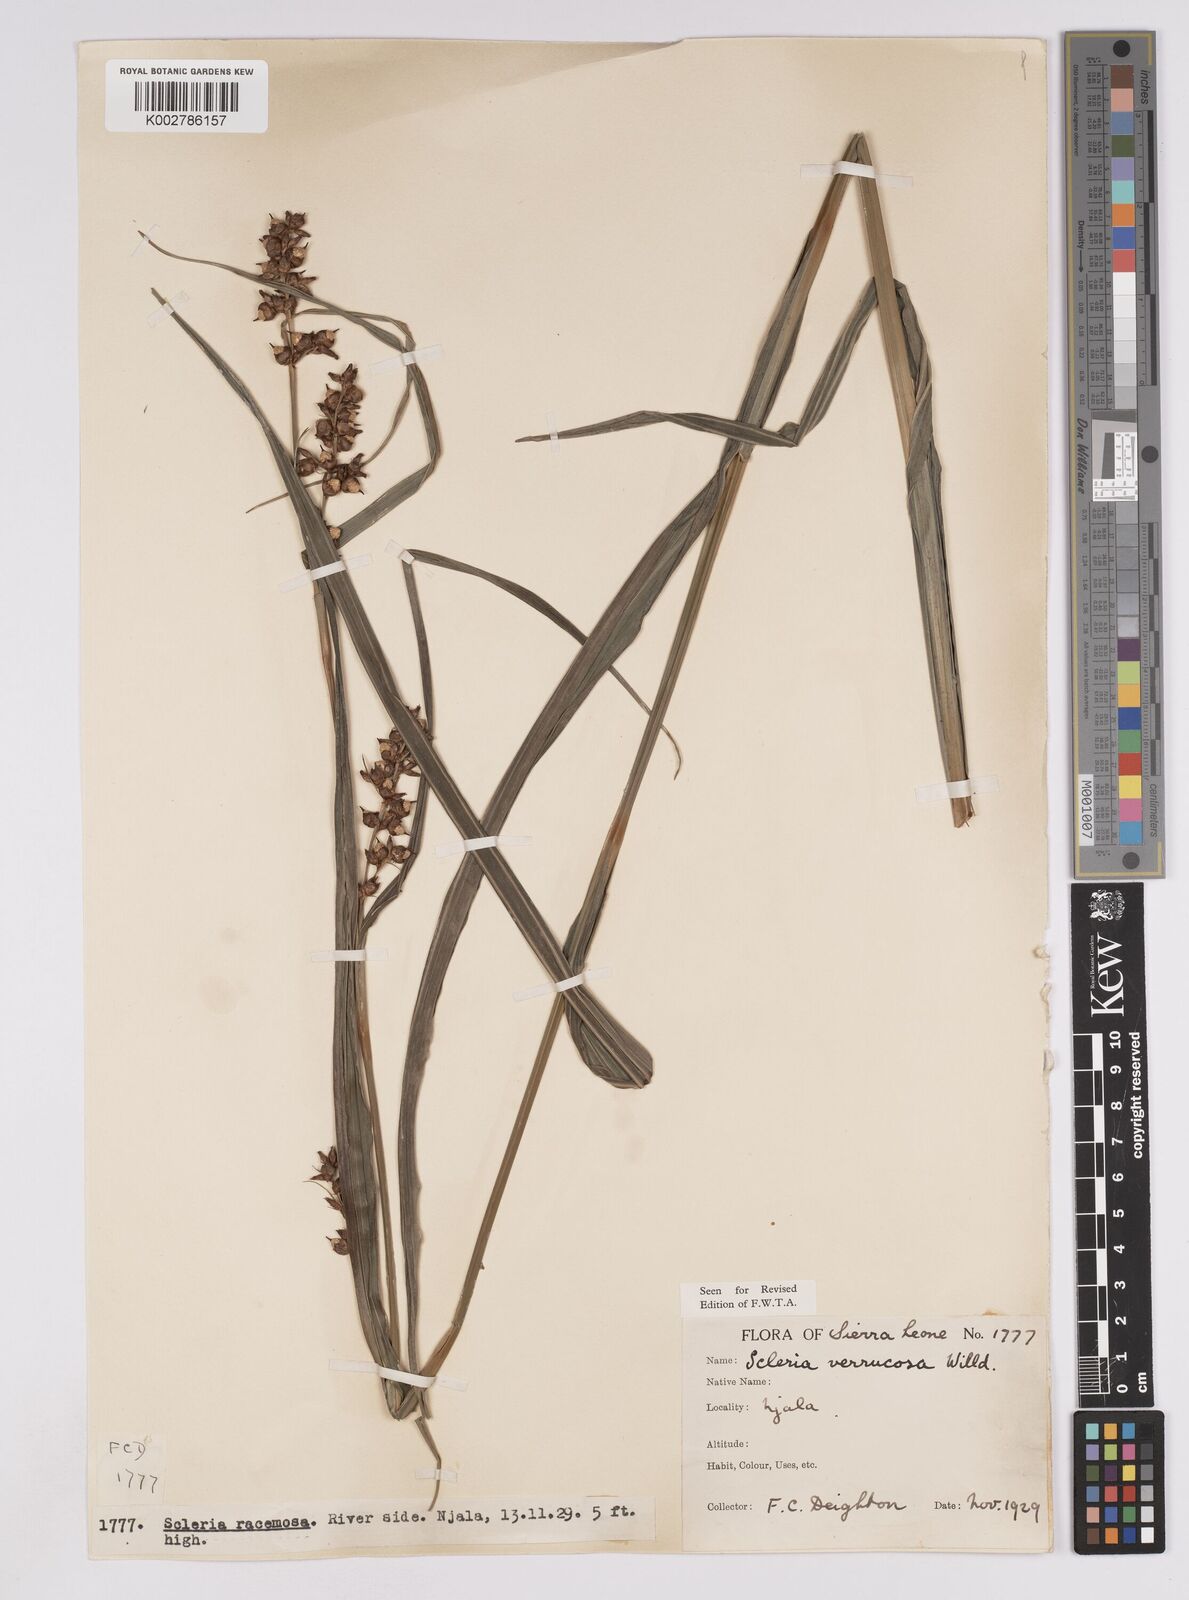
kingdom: Plantae
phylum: Tracheophyta
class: Liliopsida
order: Poales
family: Cyperaceae
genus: Scleria
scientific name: Scleria verrucosa
